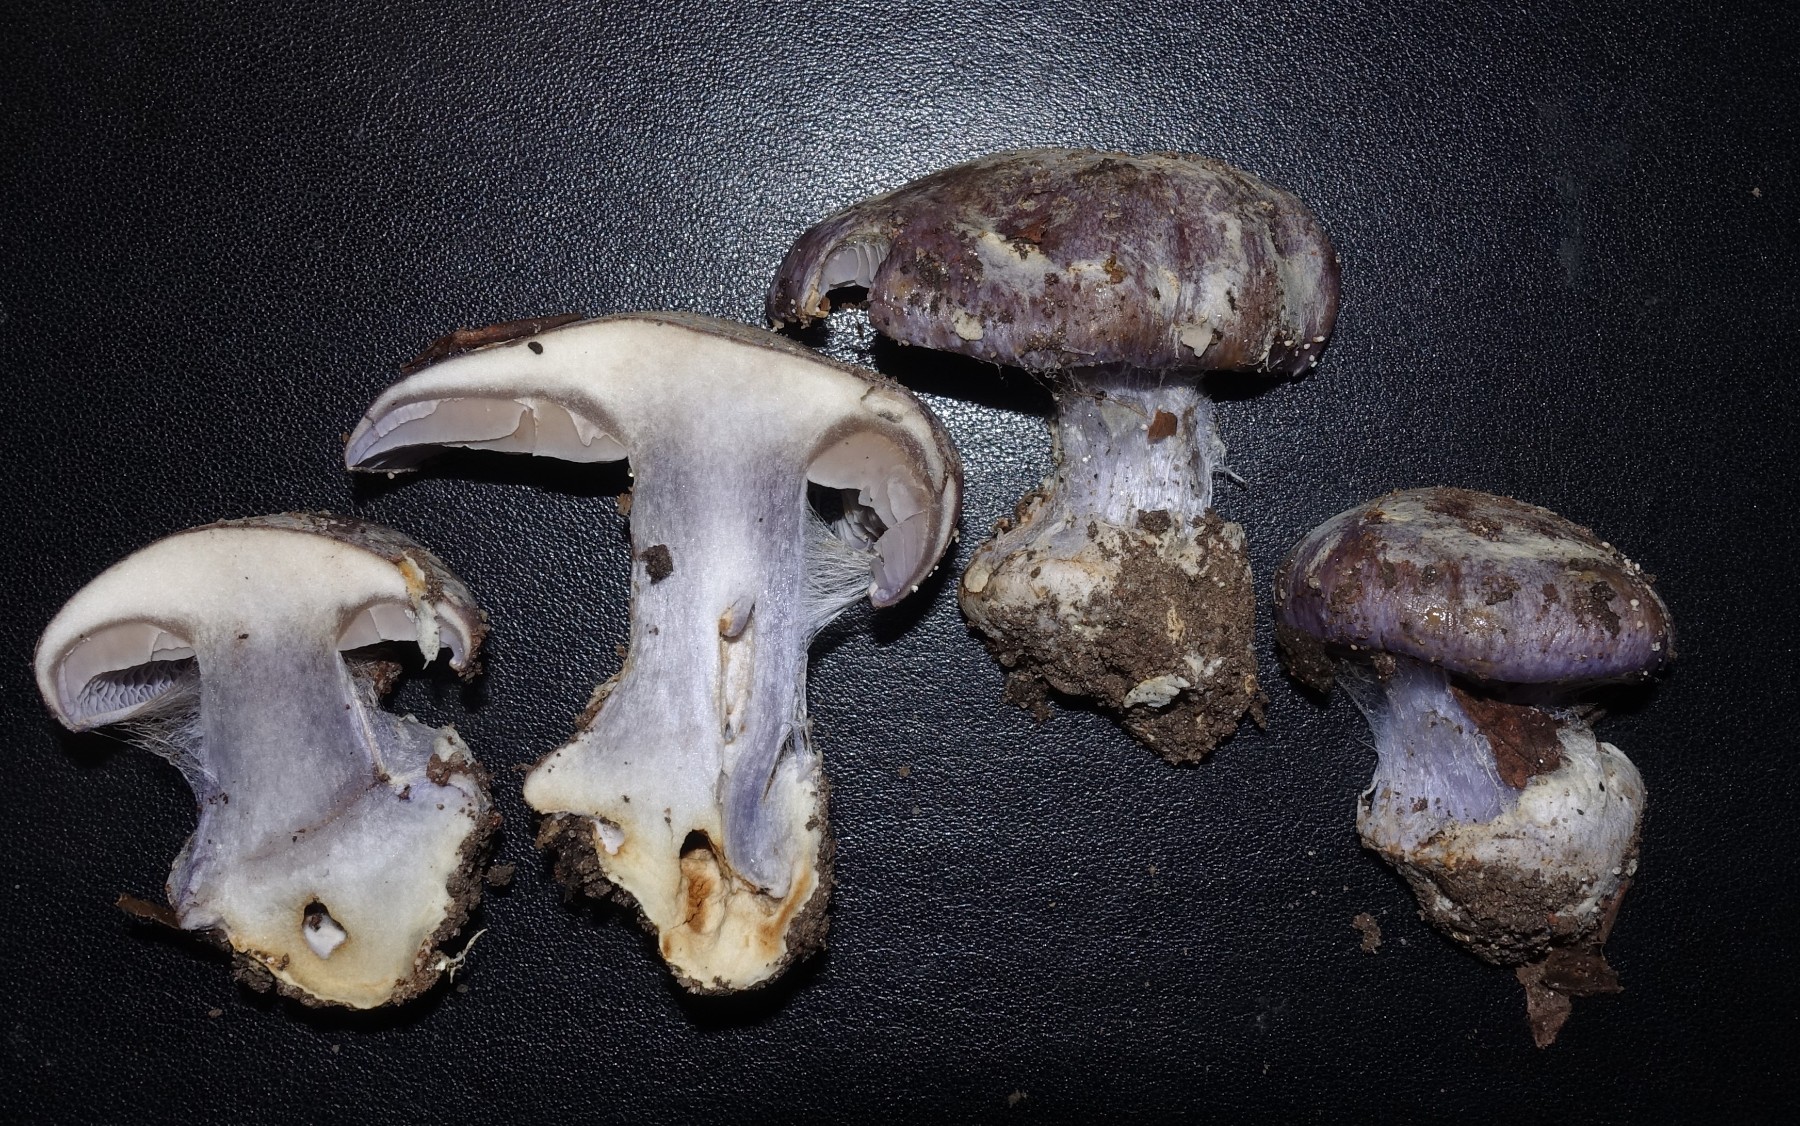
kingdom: Fungi
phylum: Basidiomycota
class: Agaricomycetes
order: Agaricales
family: Cortinariaceae
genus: Cortinarius
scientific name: Cortinarius caerulescens
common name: blåkødet slørhat
